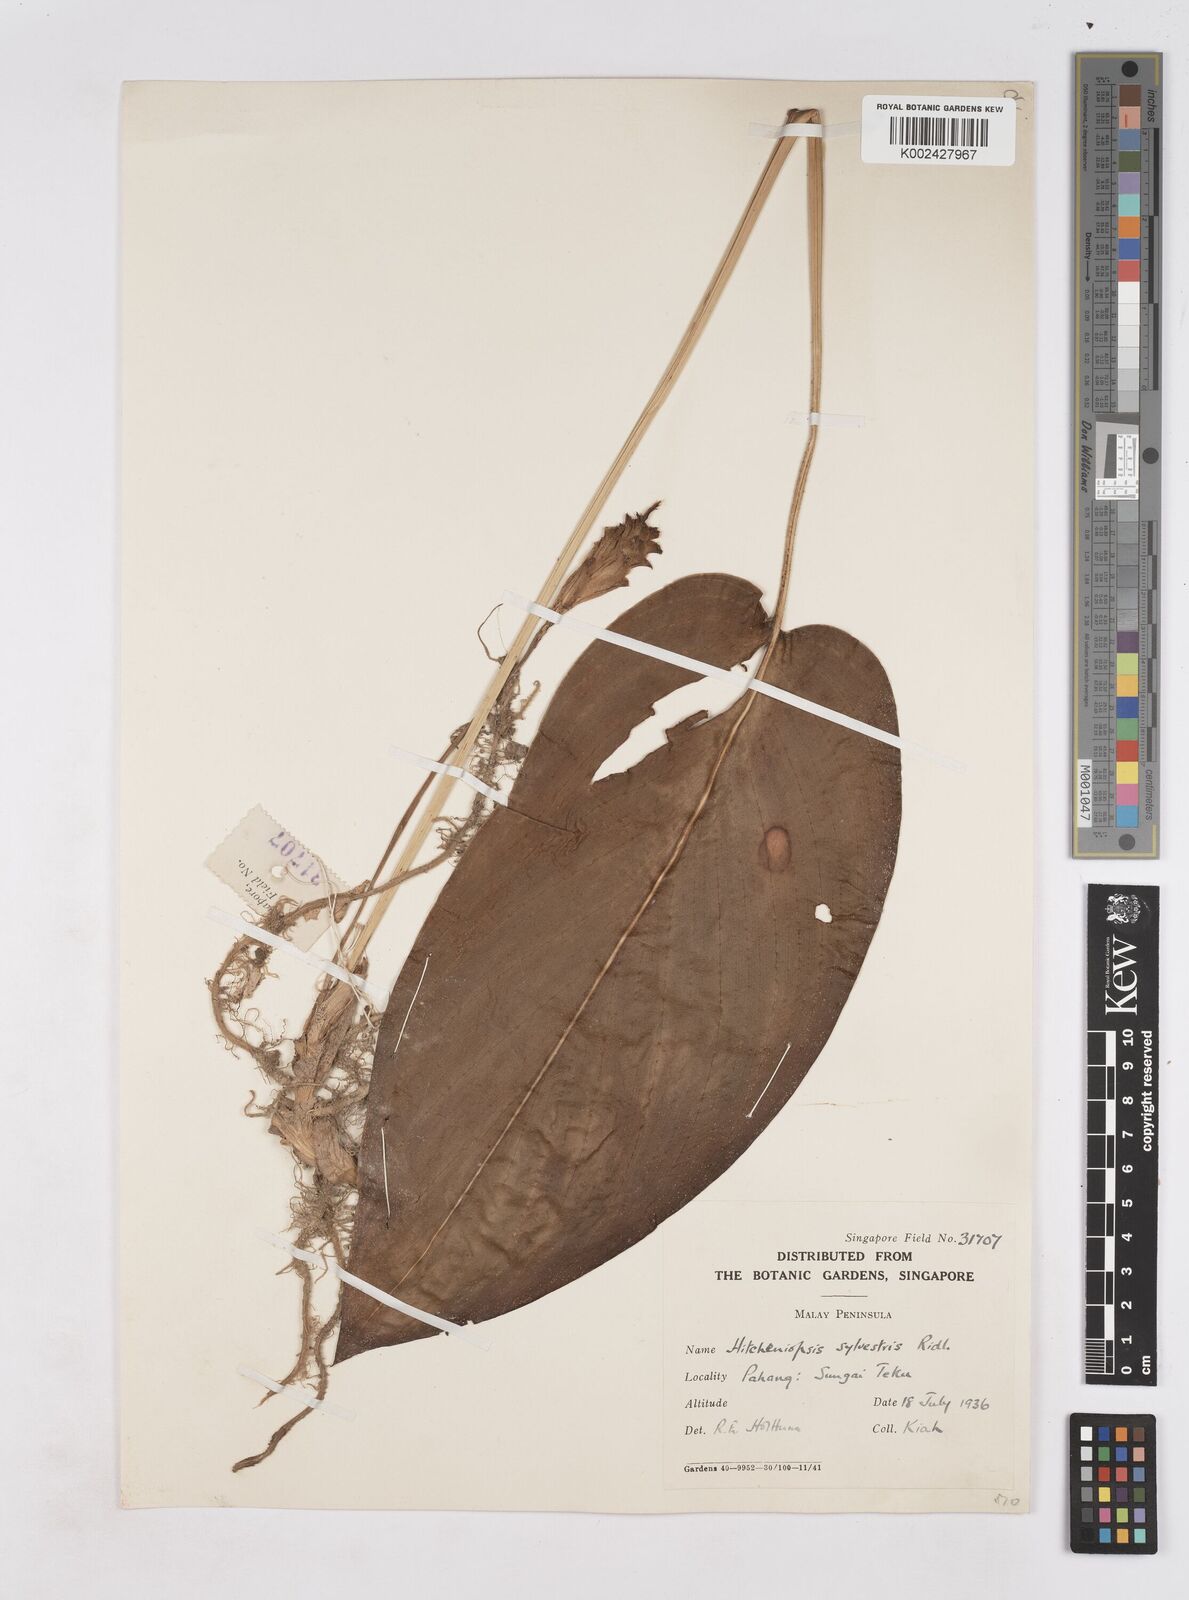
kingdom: Plantae
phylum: Tracheophyta
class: Liliopsida
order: Zingiberales
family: Zingiberaceae
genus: Scaphochlamys
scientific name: Scaphochlamys sylvestris
